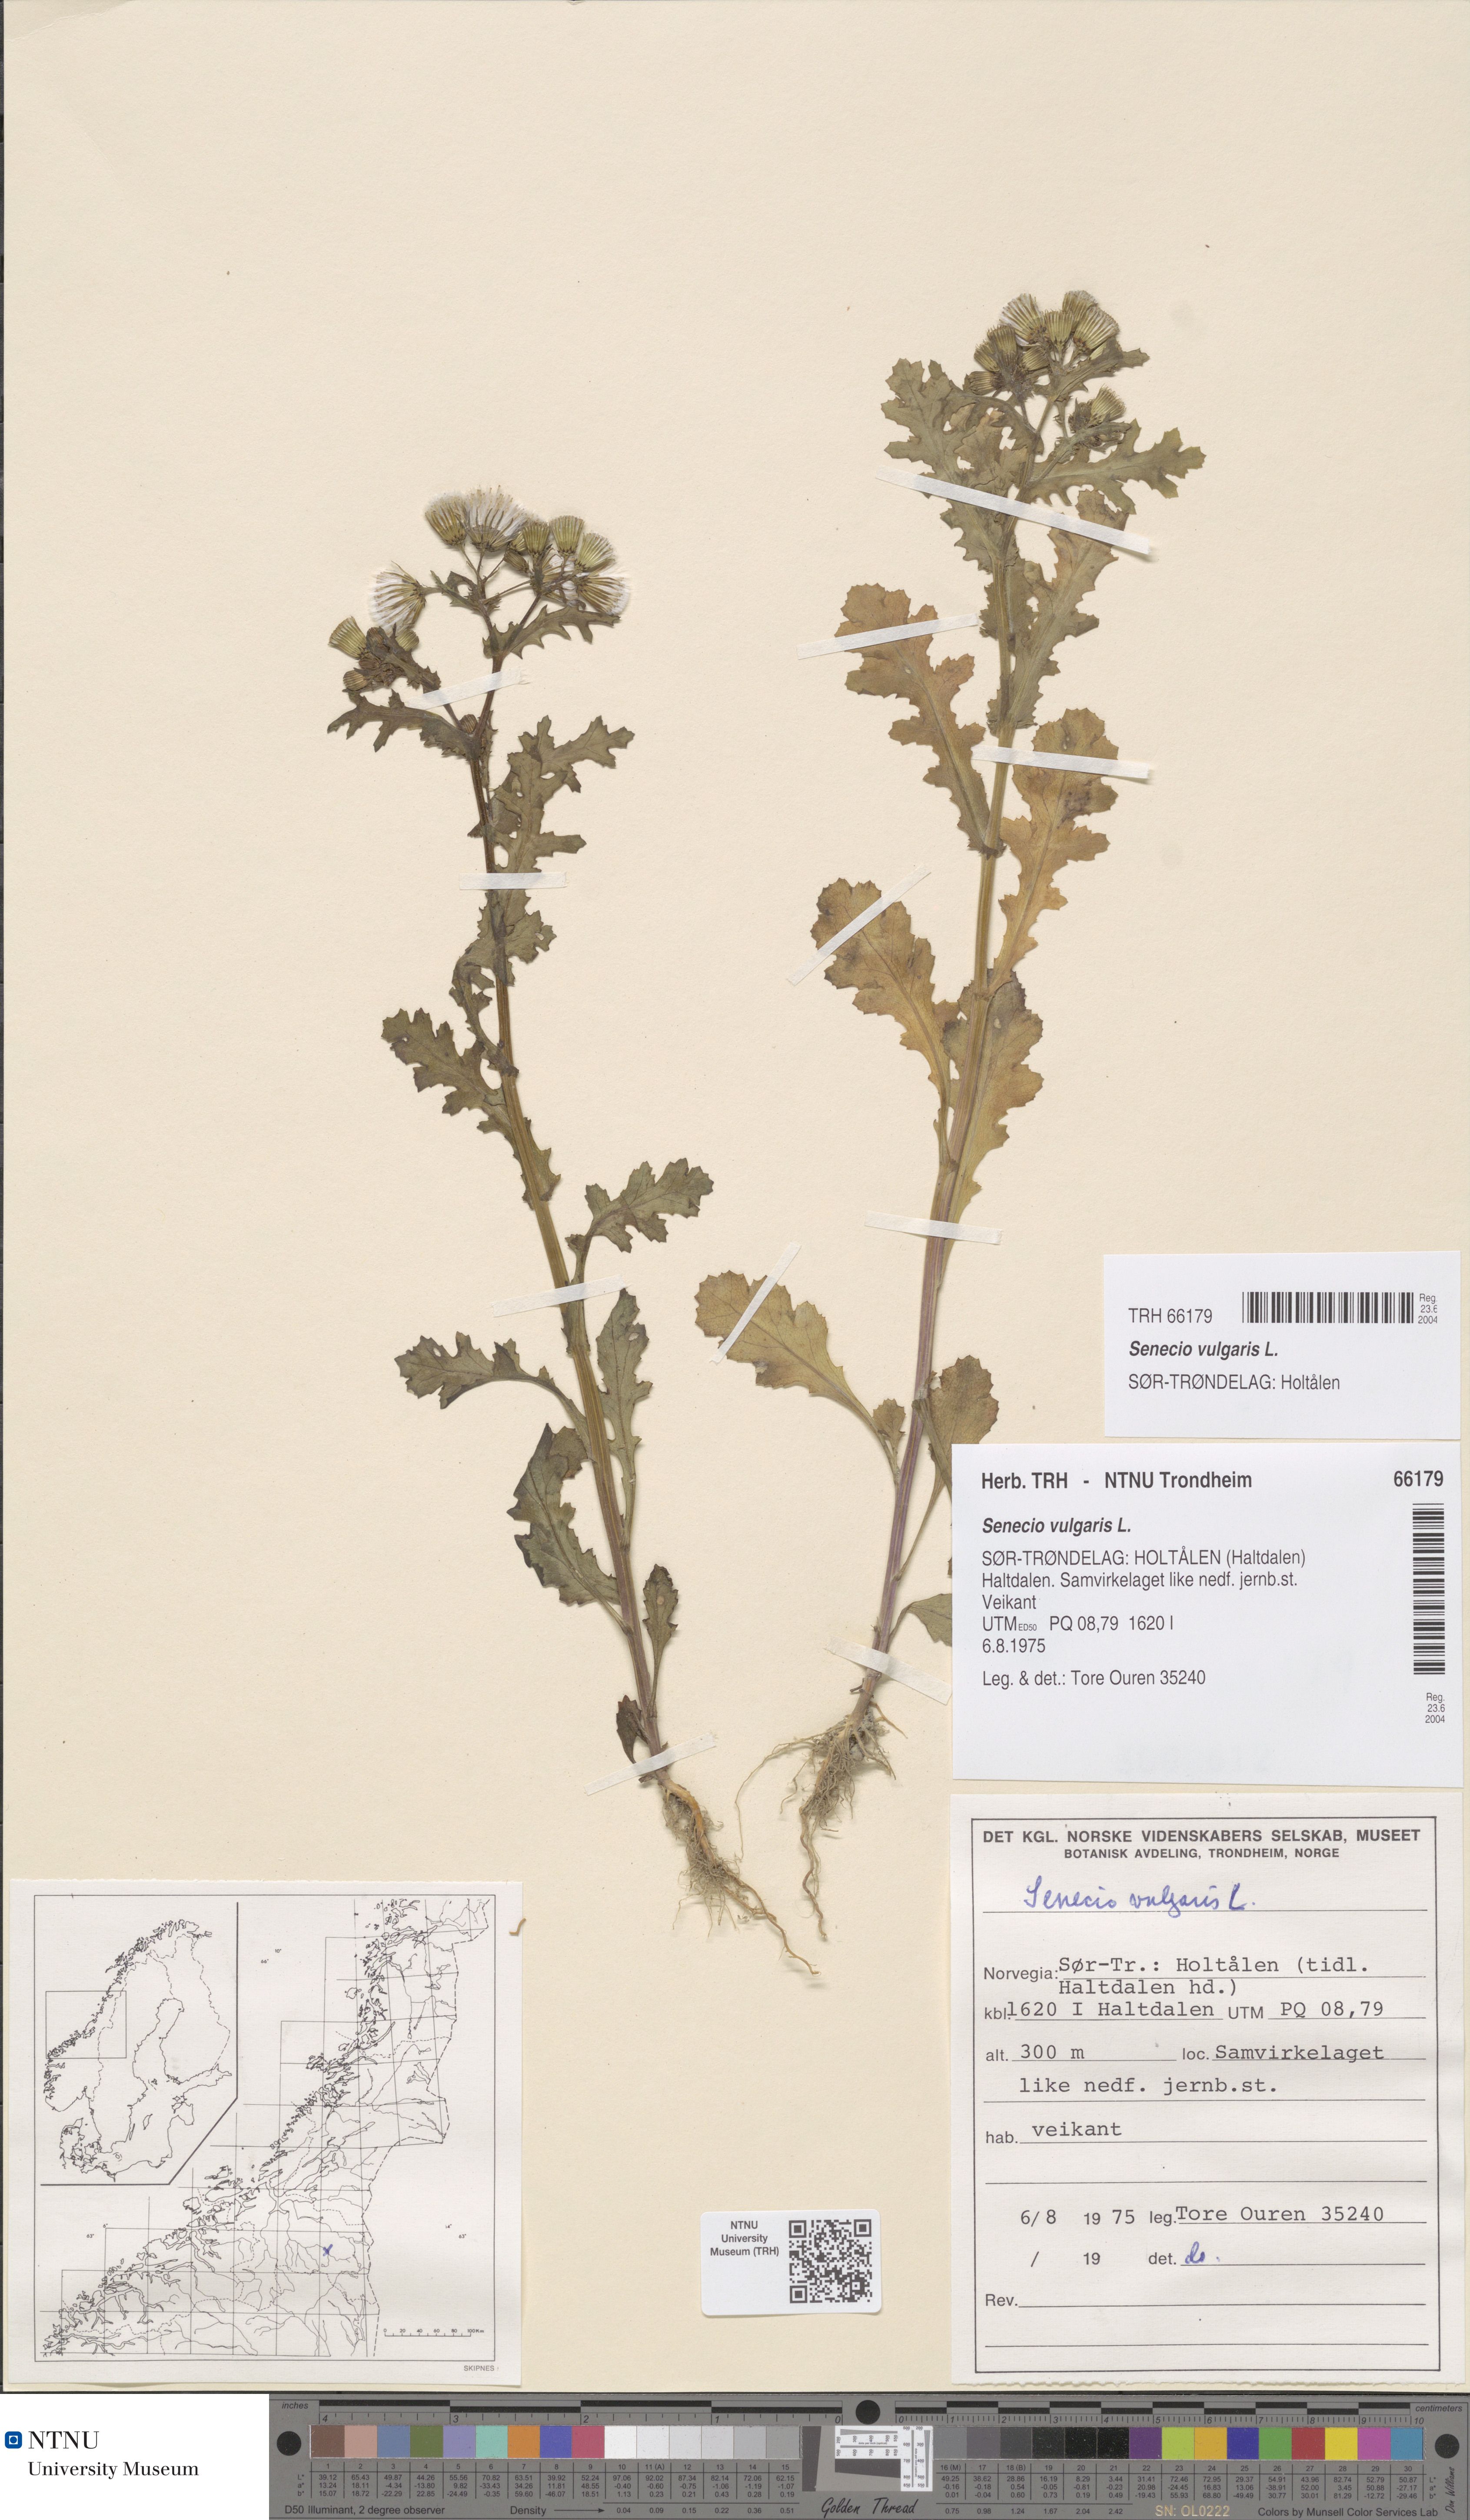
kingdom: Plantae
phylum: Tracheophyta
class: Magnoliopsida
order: Asterales
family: Asteraceae
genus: Senecio
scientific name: Senecio vulgaris
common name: Old-man-in-the-spring
